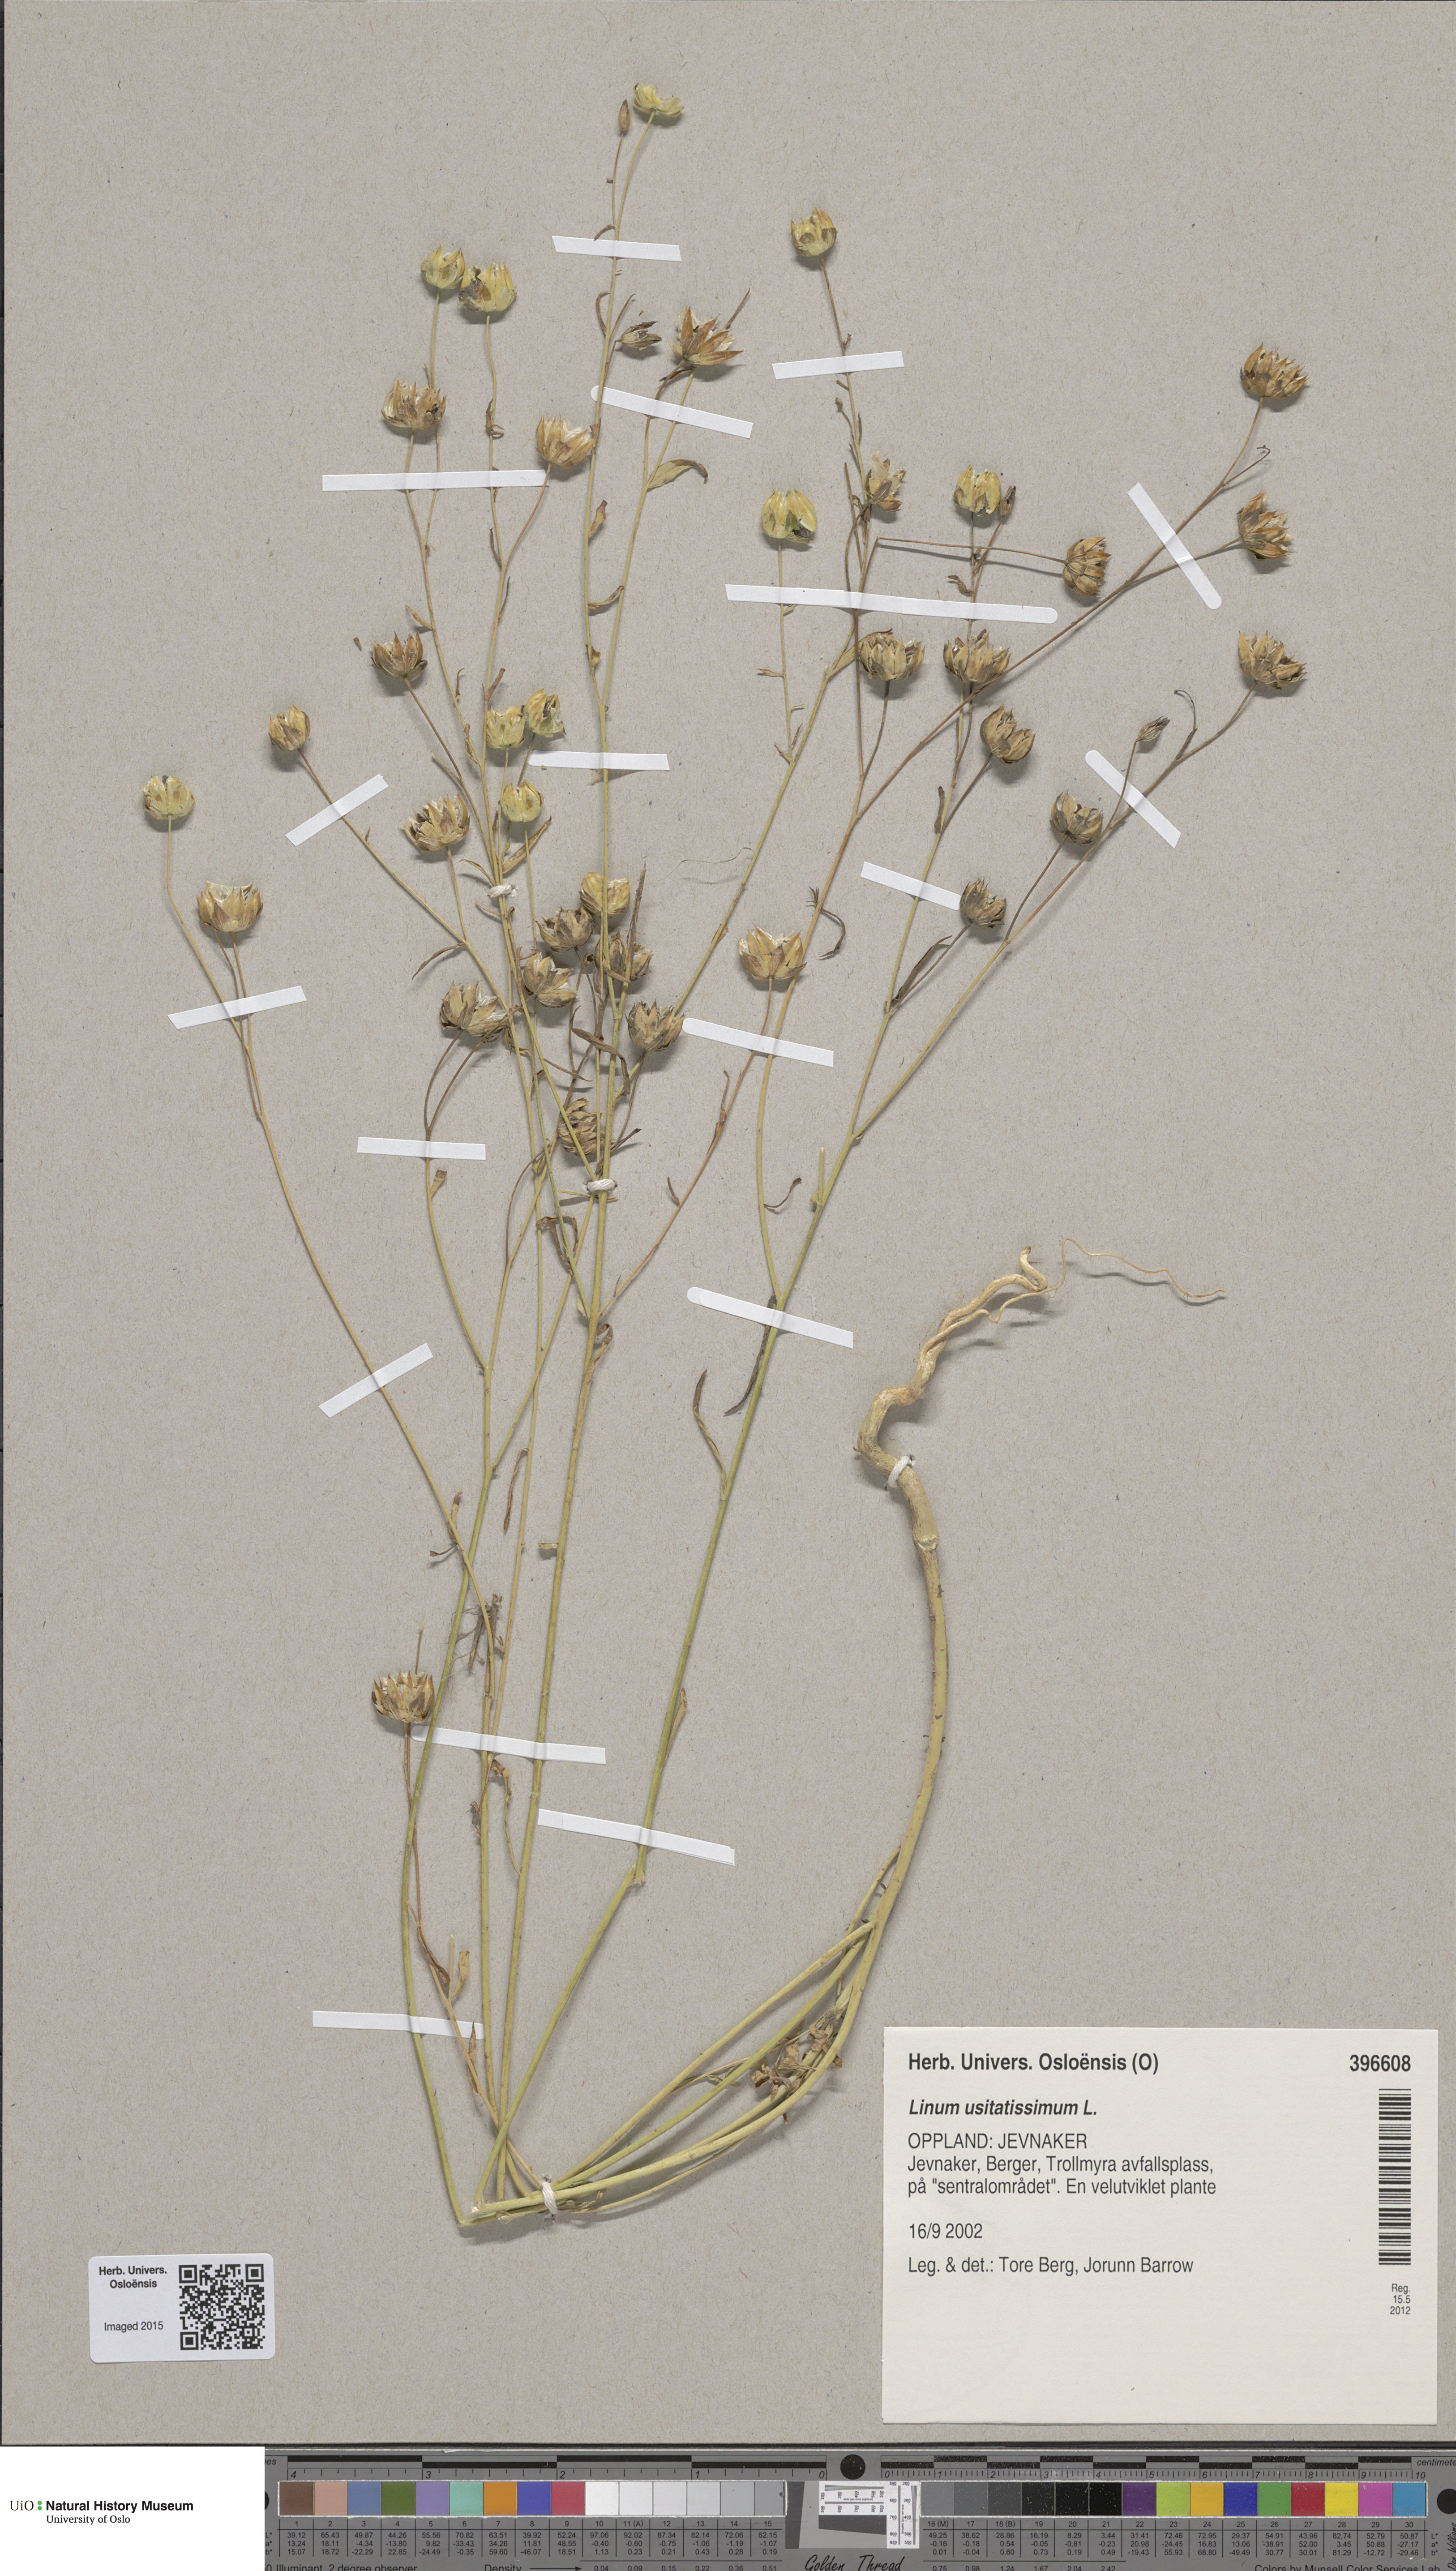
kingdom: Plantae
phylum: Tracheophyta
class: Magnoliopsida
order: Malpighiales
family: Linaceae
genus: Linum
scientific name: Linum usitatissimum
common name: Flax
